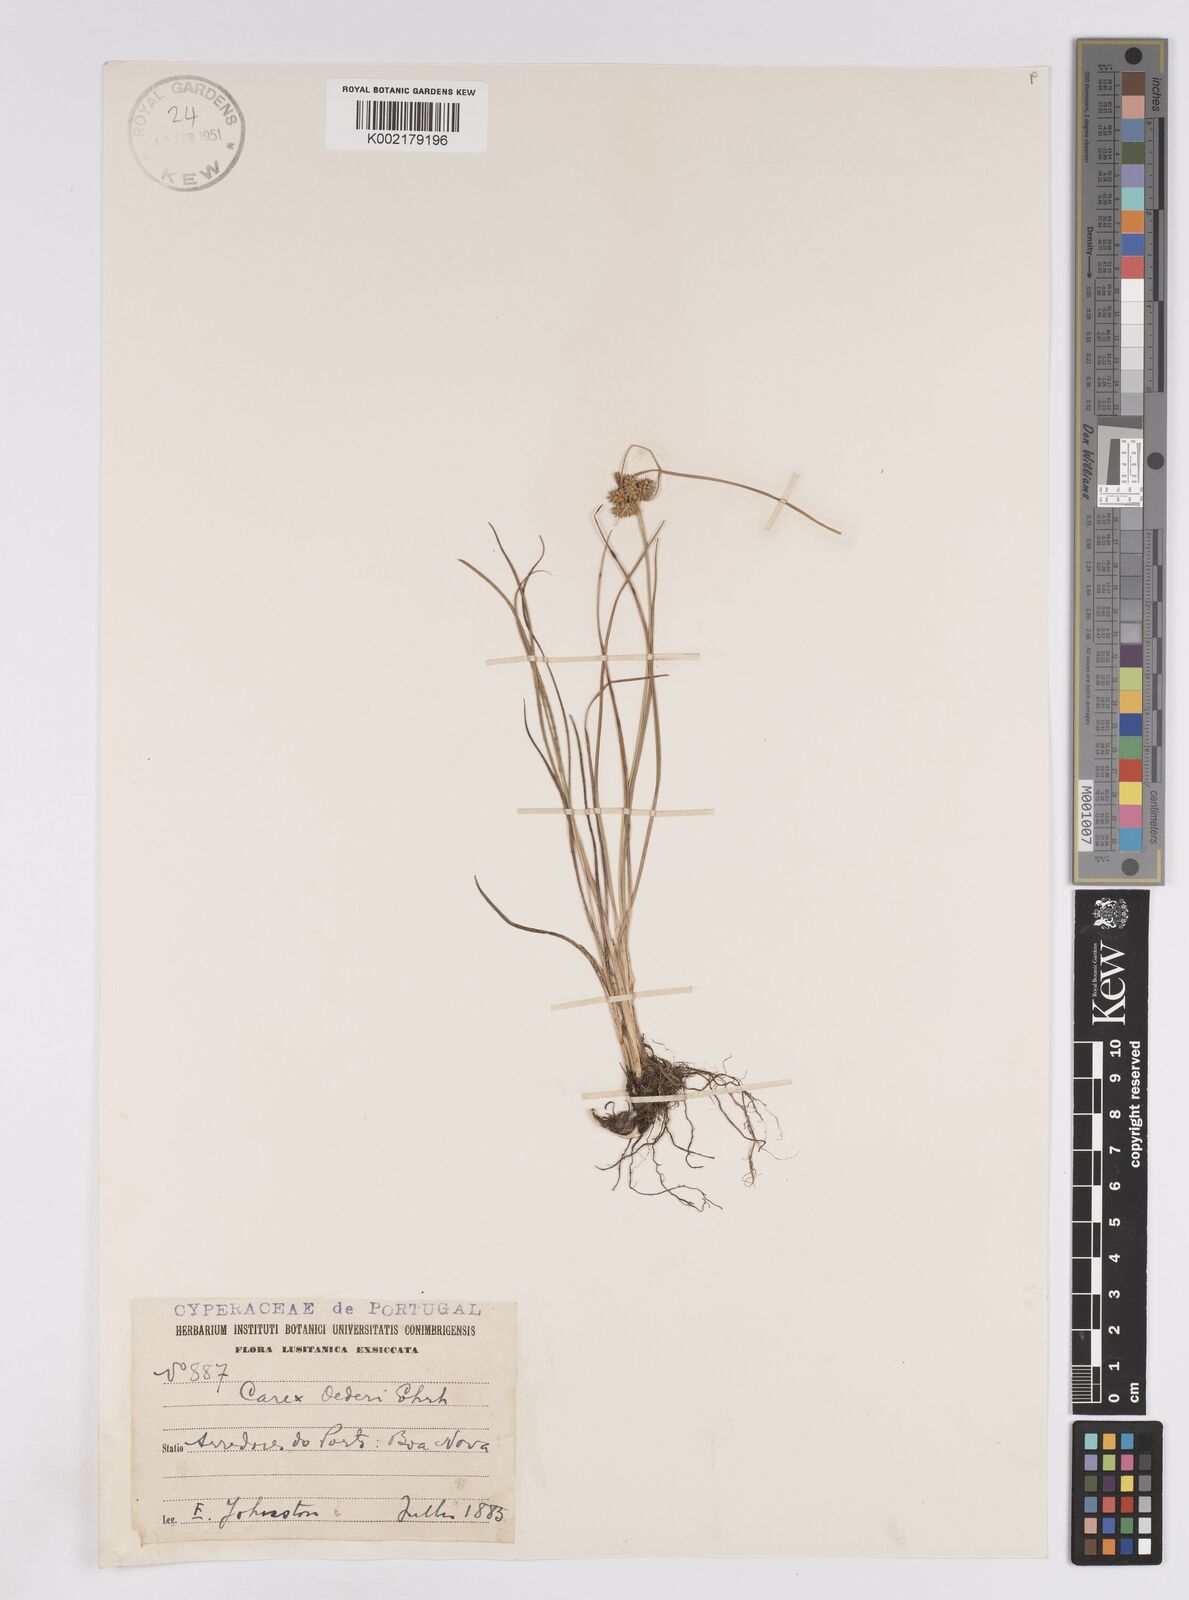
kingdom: Plantae
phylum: Tracheophyta
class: Liliopsida
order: Poales
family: Cyperaceae
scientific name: Cyperaceae
